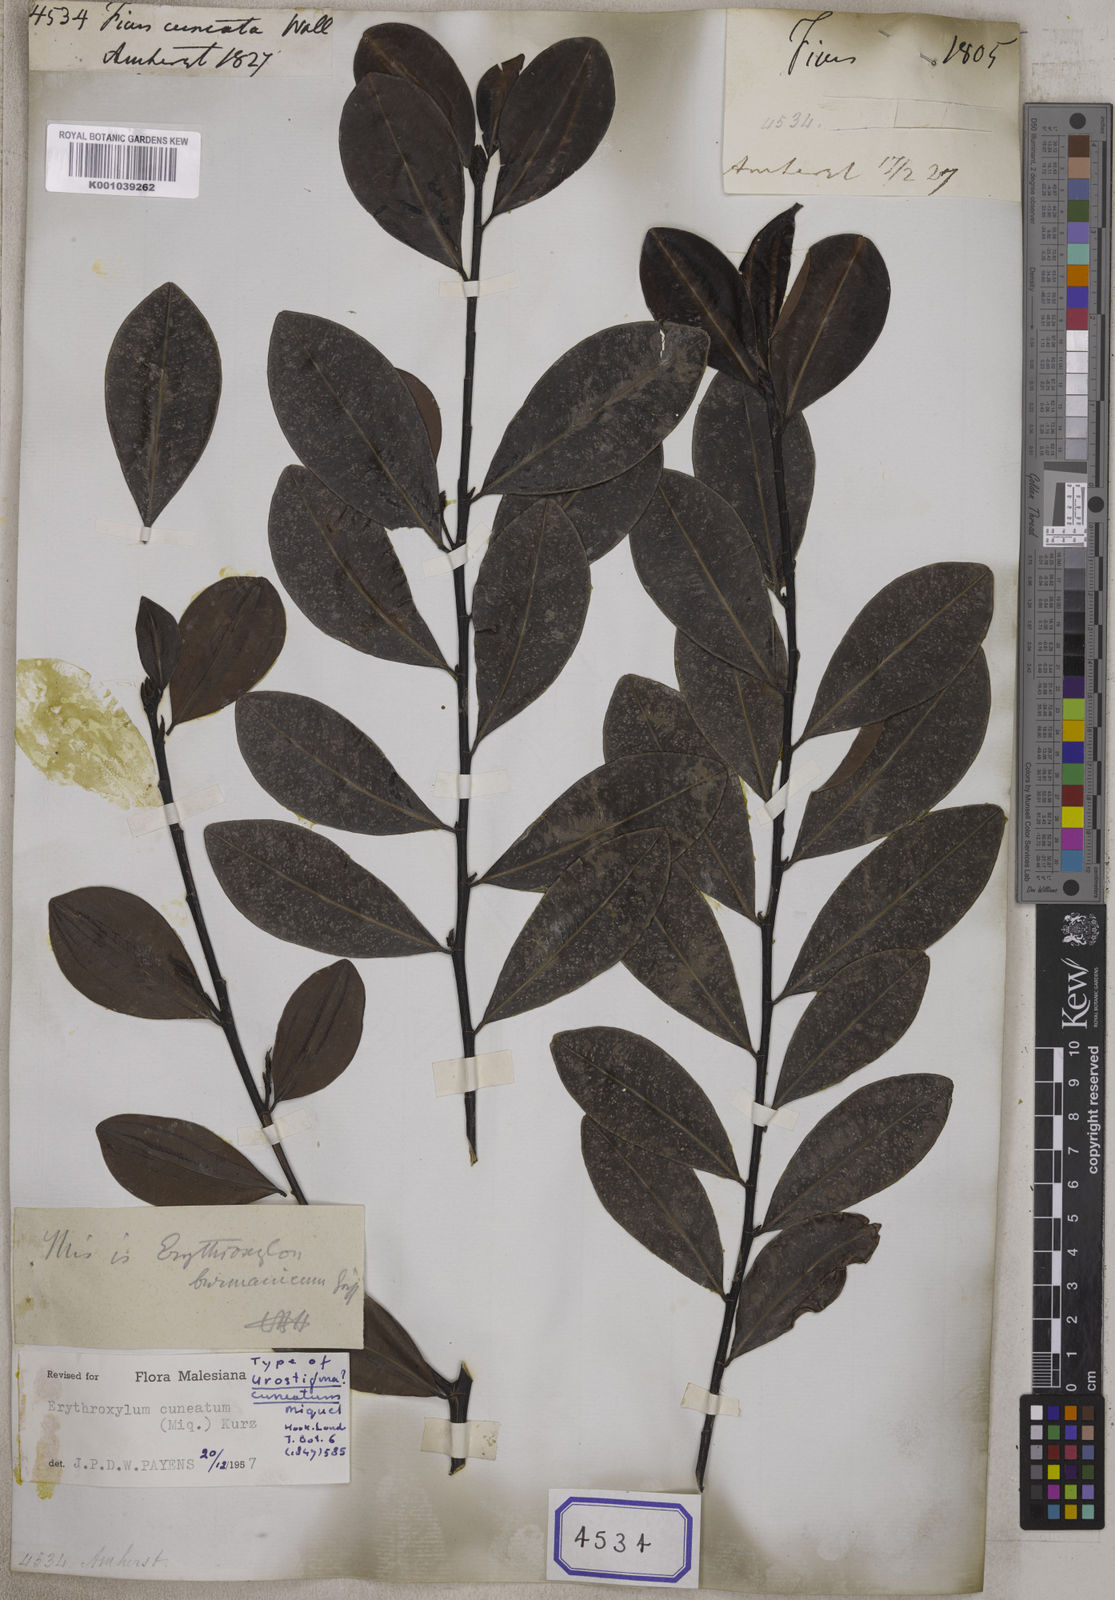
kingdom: Plantae
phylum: Tracheophyta
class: Magnoliopsida
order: Rosales
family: Moraceae
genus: Ficus
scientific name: Ficus
